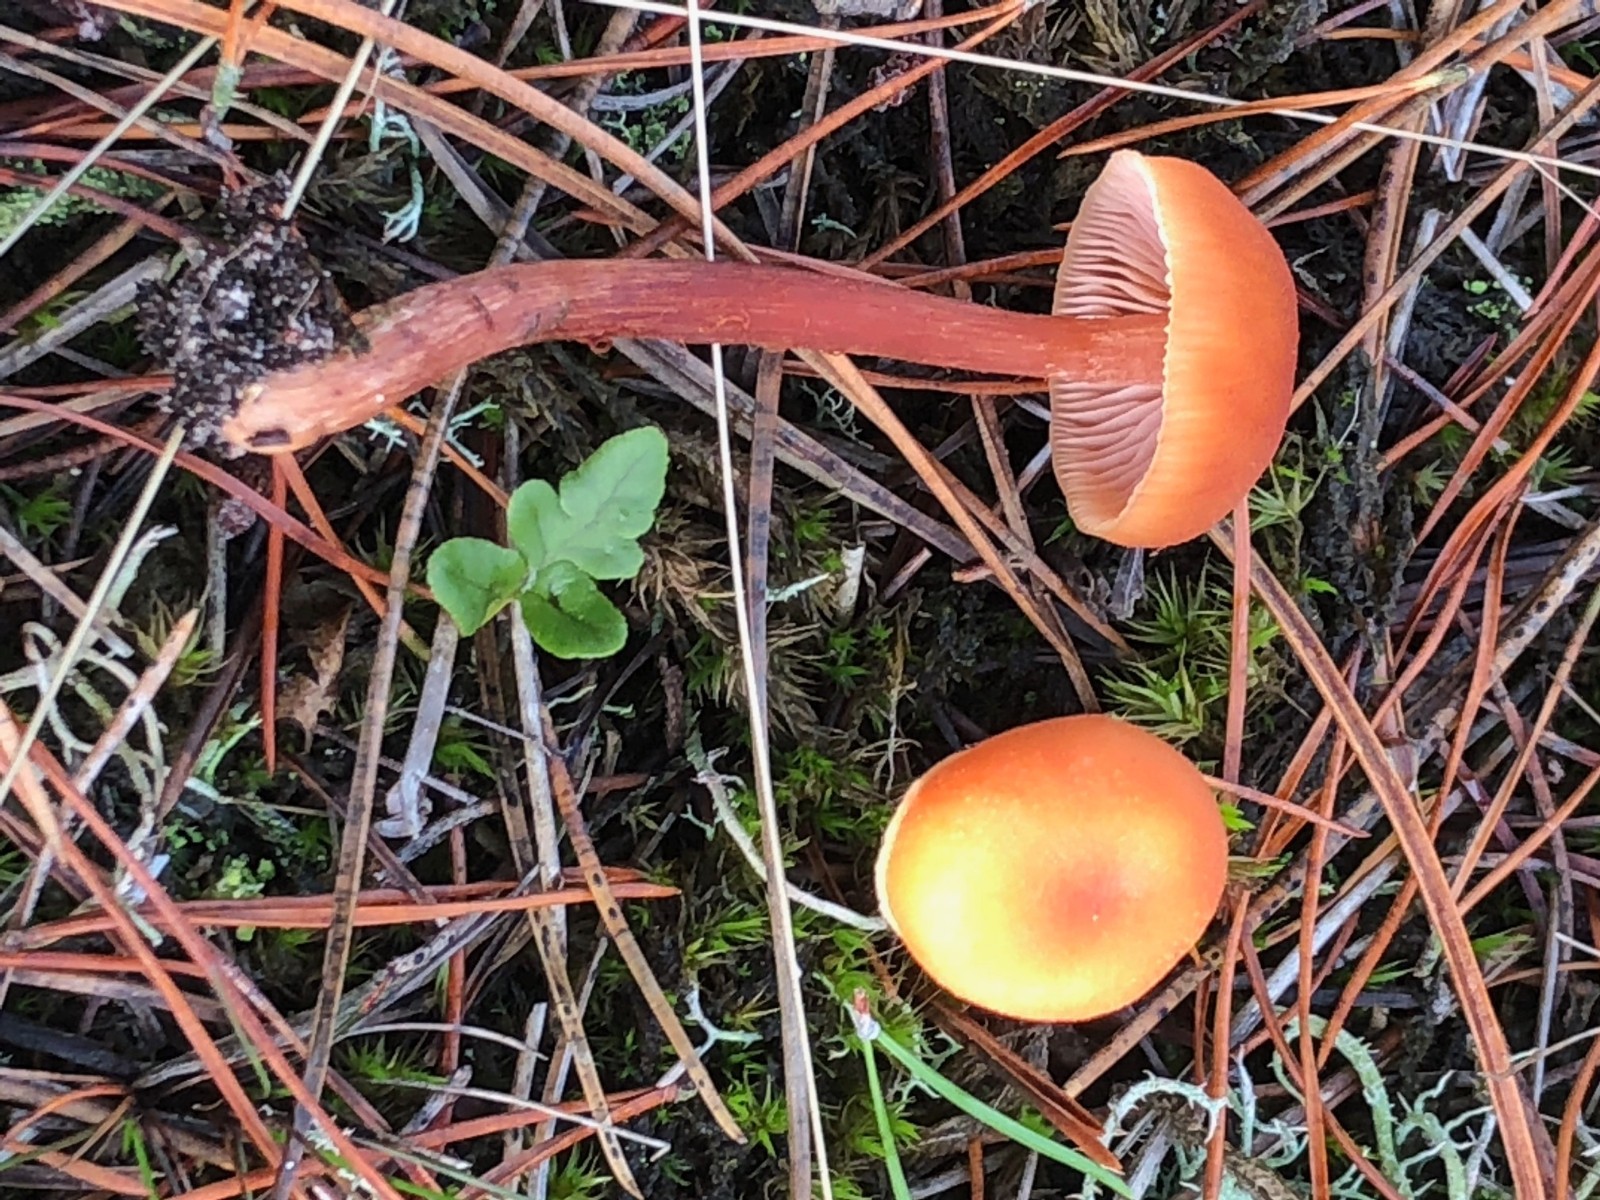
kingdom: Fungi
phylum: Basidiomycota
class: Agaricomycetes
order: Agaricales
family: Hydnangiaceae
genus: Laccaria
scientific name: Laccaria
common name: ametysthat
